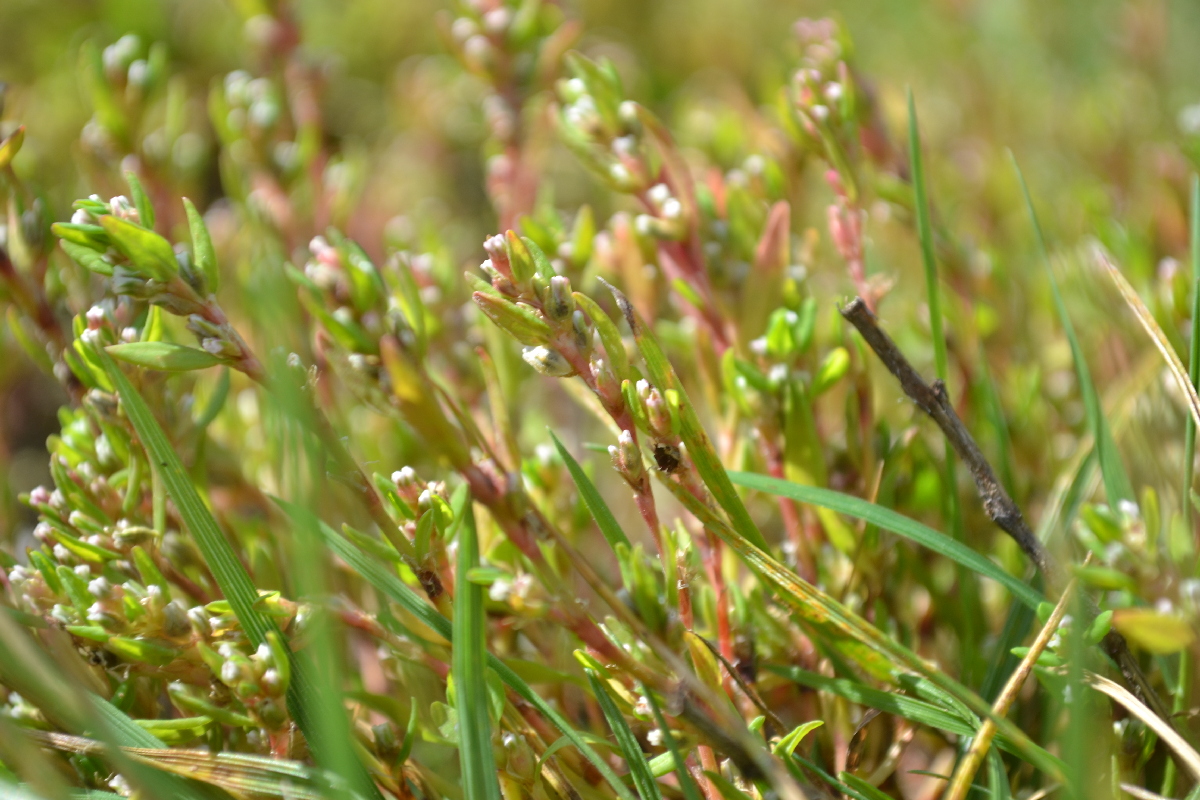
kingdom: Plantae
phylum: Tracheophyta
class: Magnoliopsida
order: Caryophyllales
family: Polygonaceae
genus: Polygonum
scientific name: Polygonum aviculare
